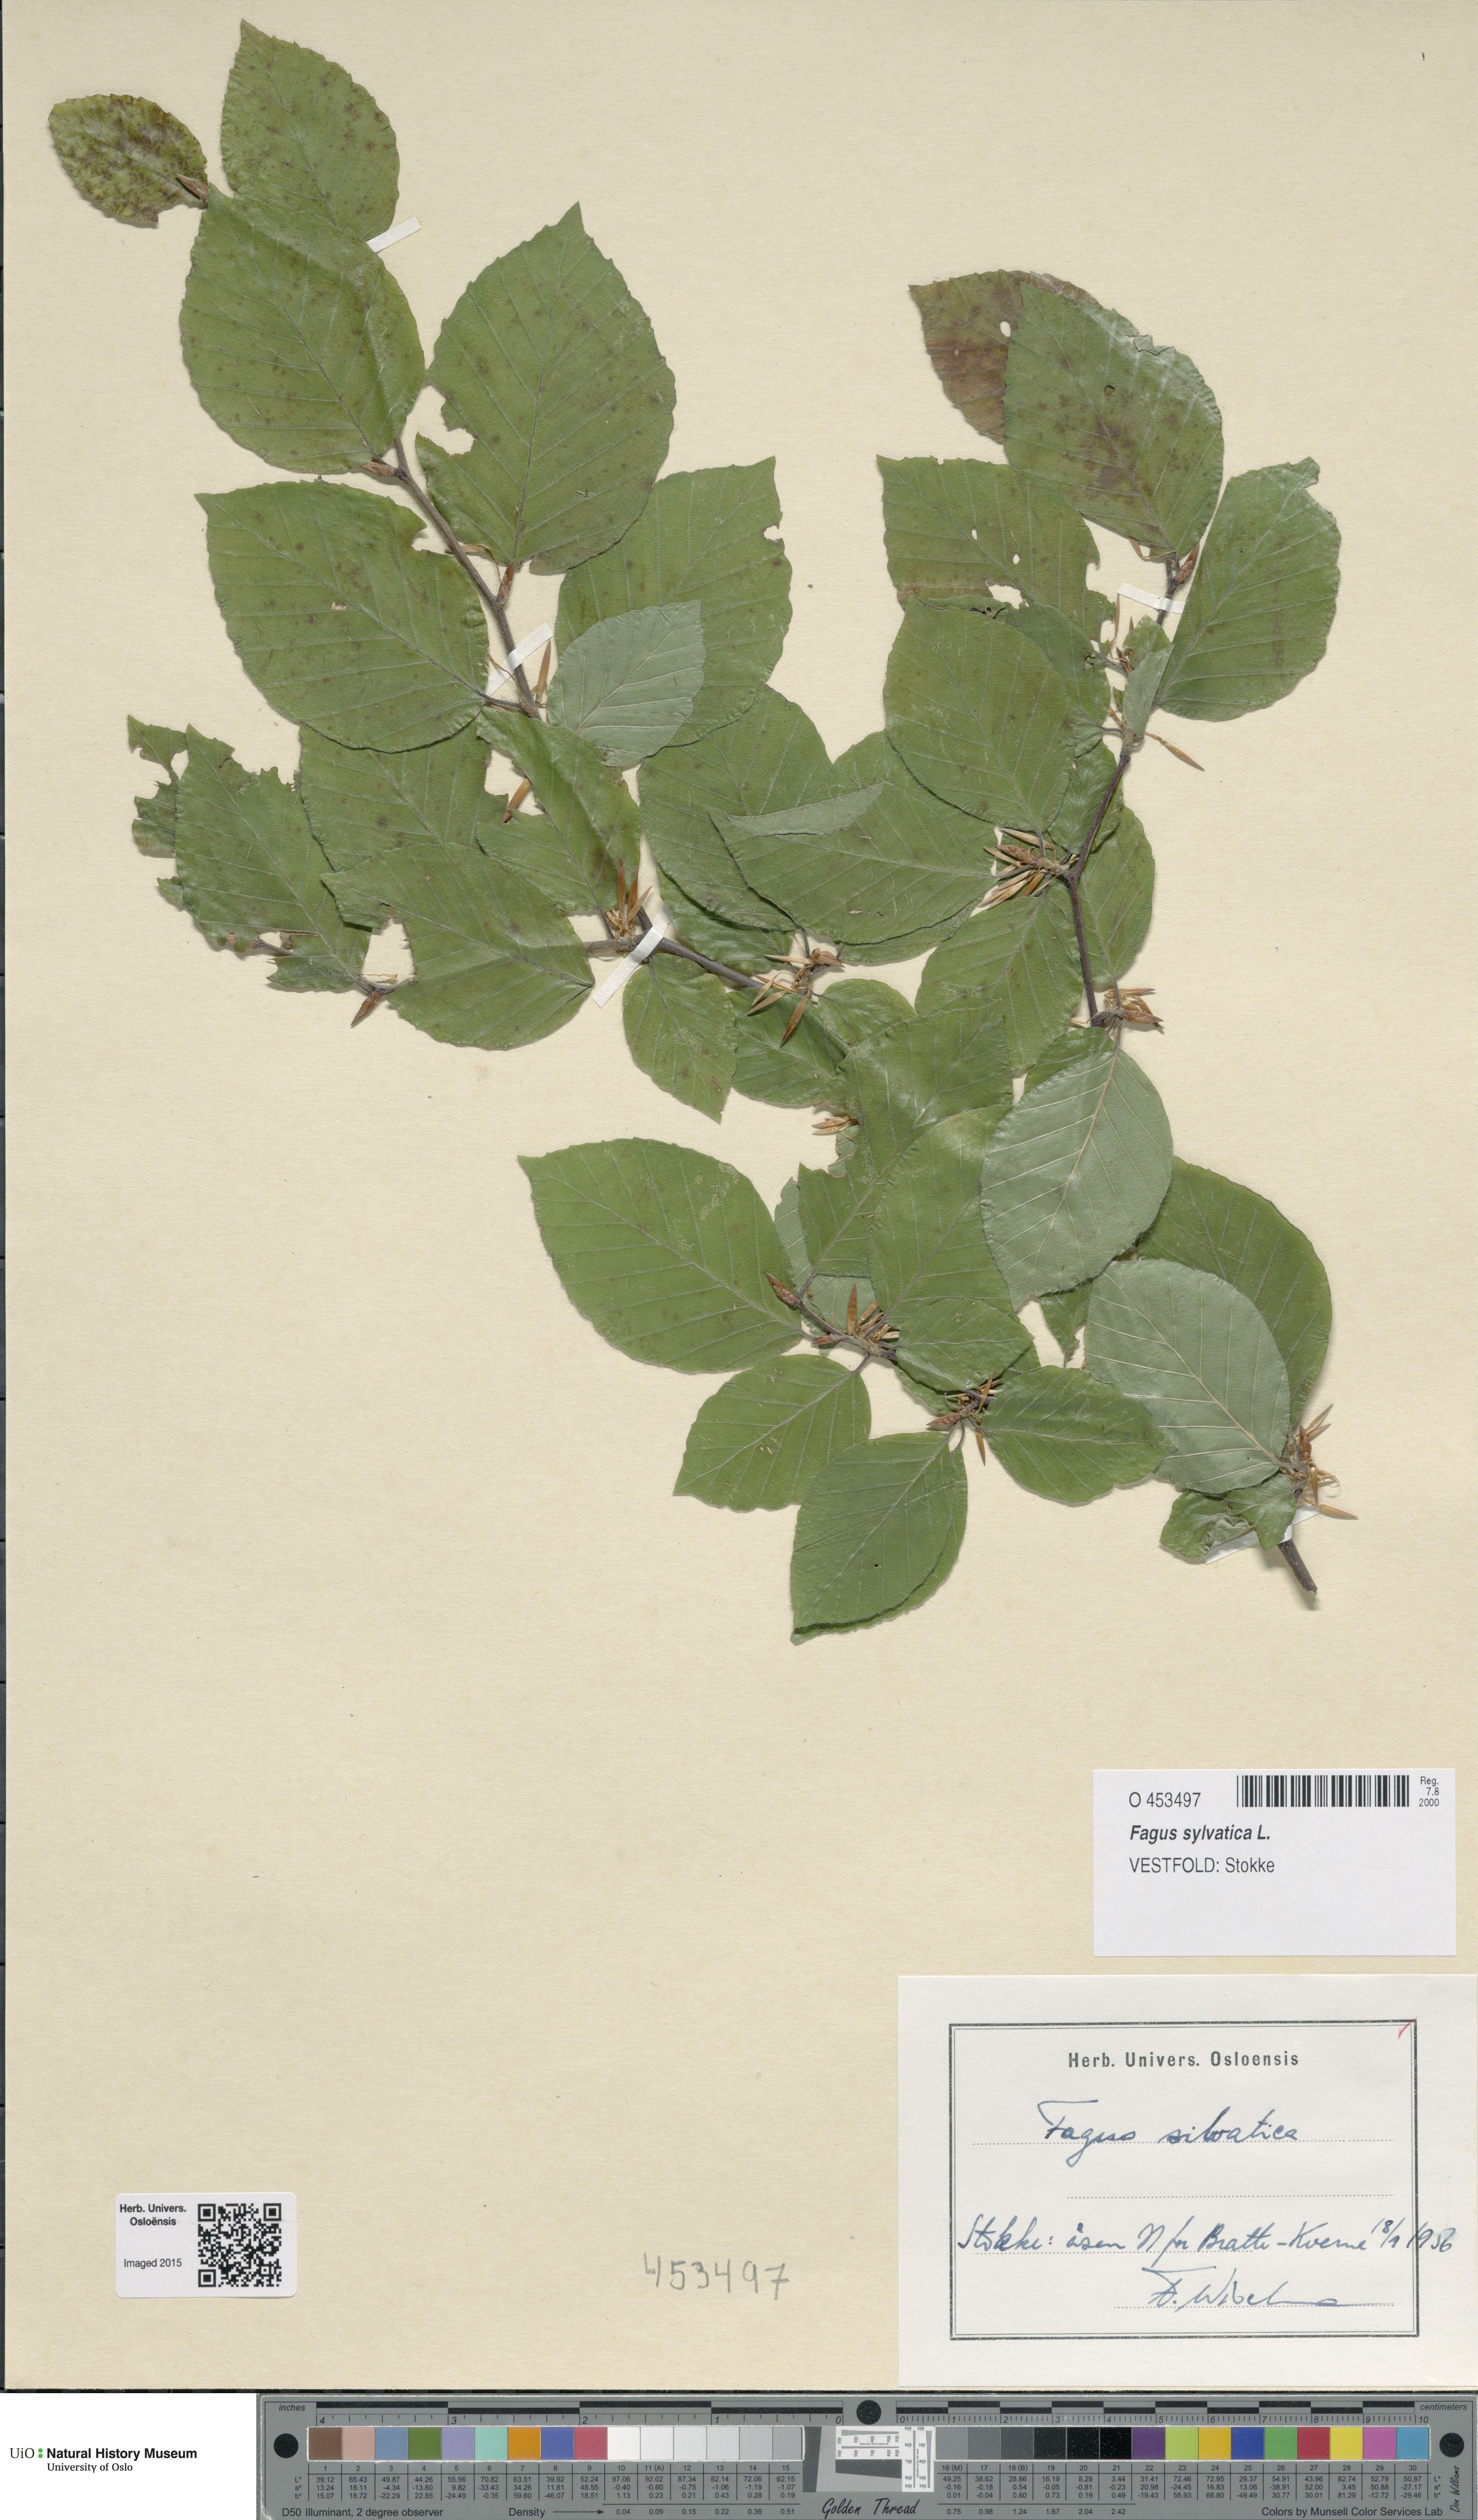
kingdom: Plantae
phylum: Tracheophyta
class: Magnoliopsida
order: Fagales
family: Fagaceae
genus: Fagus
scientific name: Fagus sylvatica
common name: Beech
